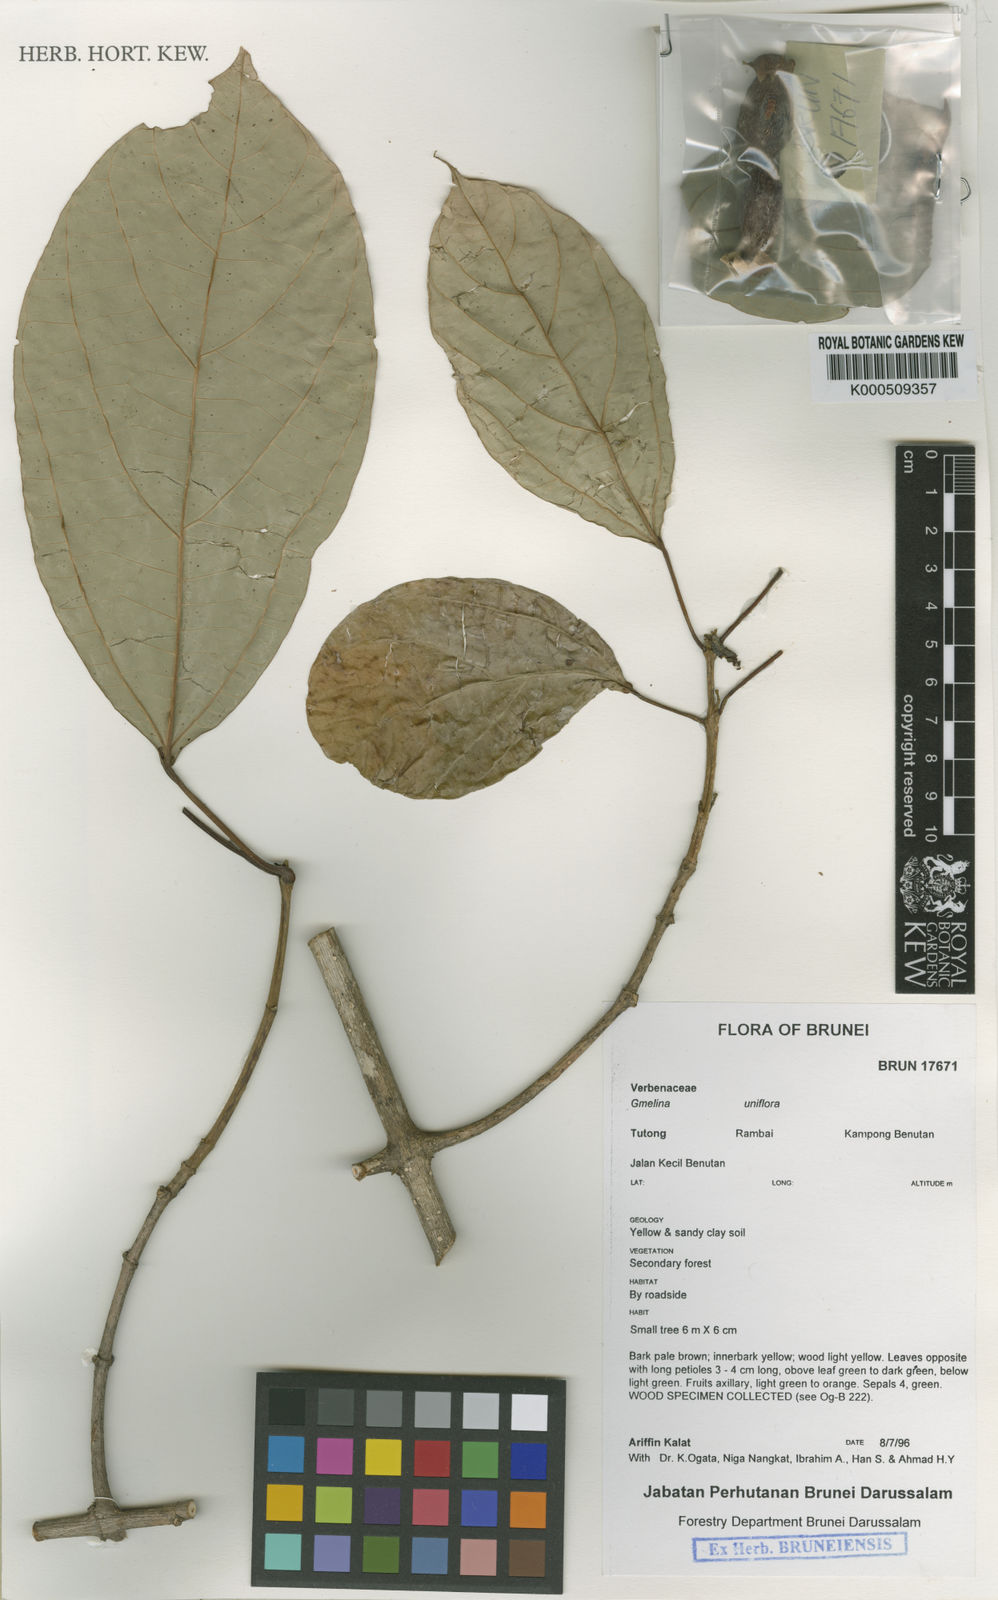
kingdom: Plantae
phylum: Tracheophyta
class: Magnoliopsida
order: Lamiales
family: Lamiaceae
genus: Gmelina
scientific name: Gmelina uniflora
